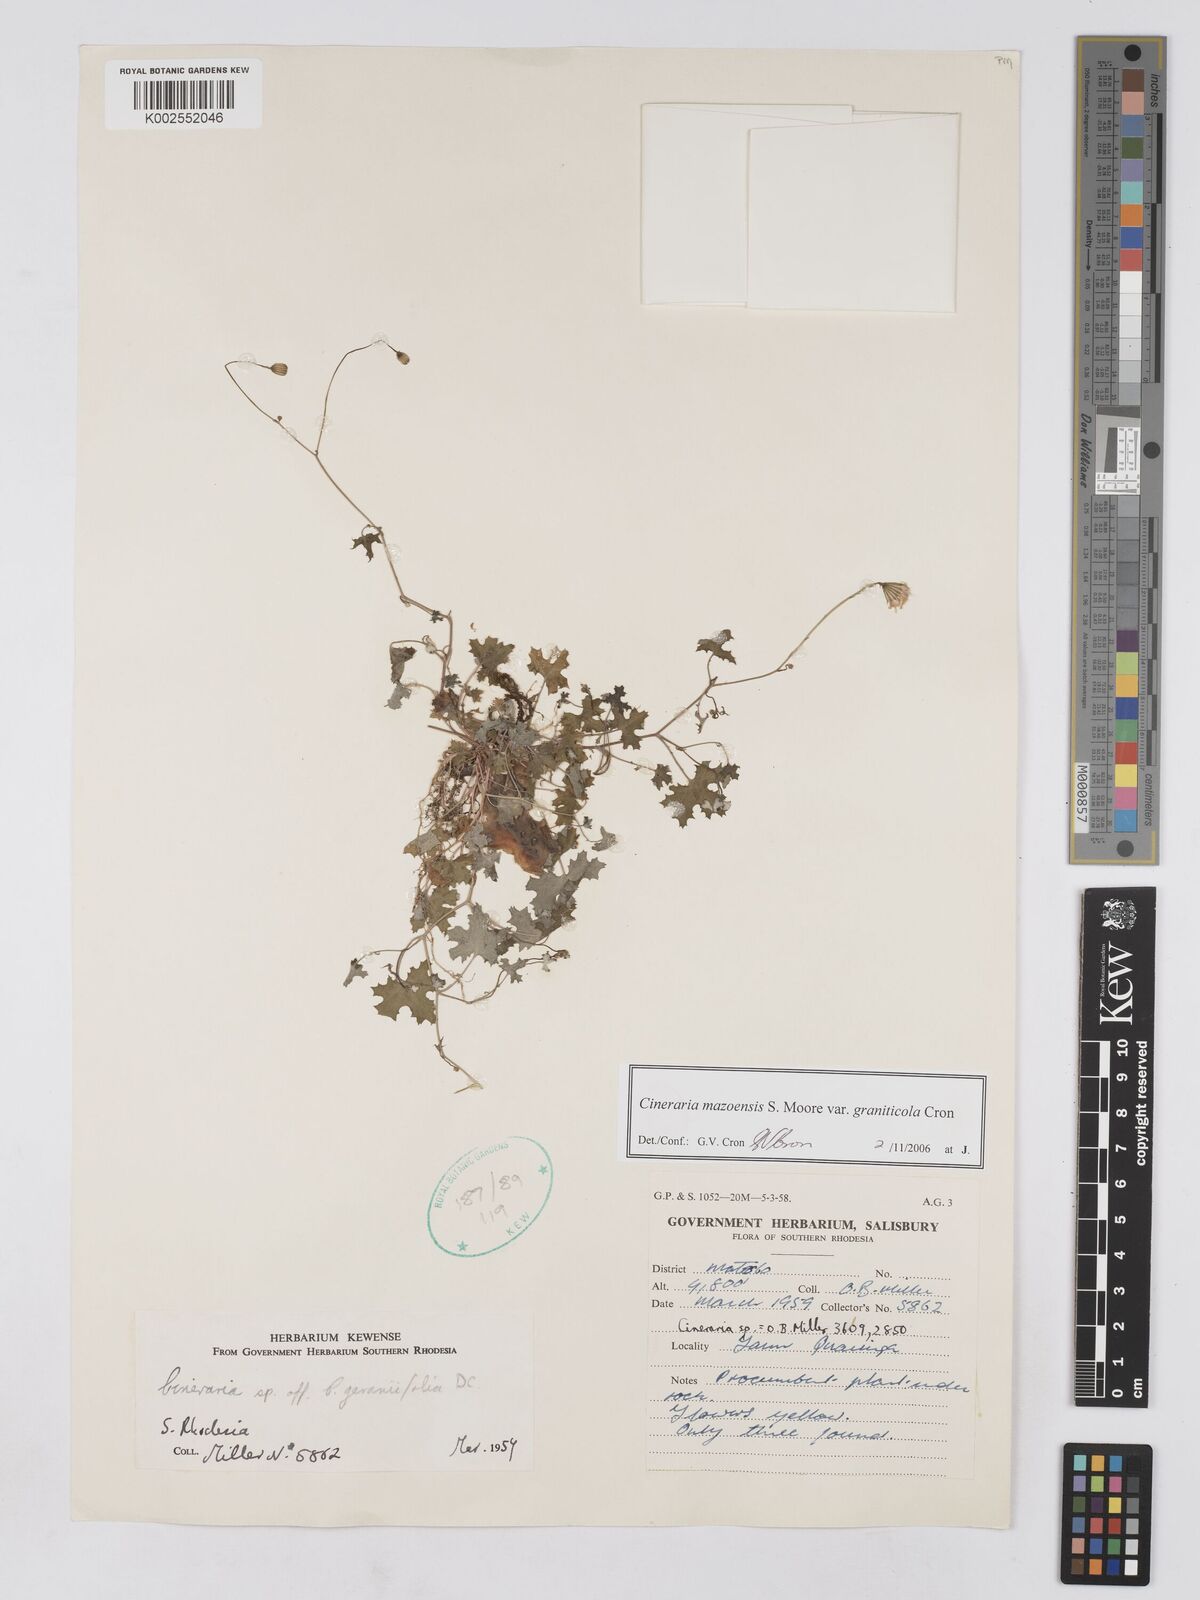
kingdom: Plantae
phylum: Tracheophyta
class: Magnoliopsida
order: Asterales
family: Asteraceae
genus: Cineraria
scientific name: Cineraria mazoensis
